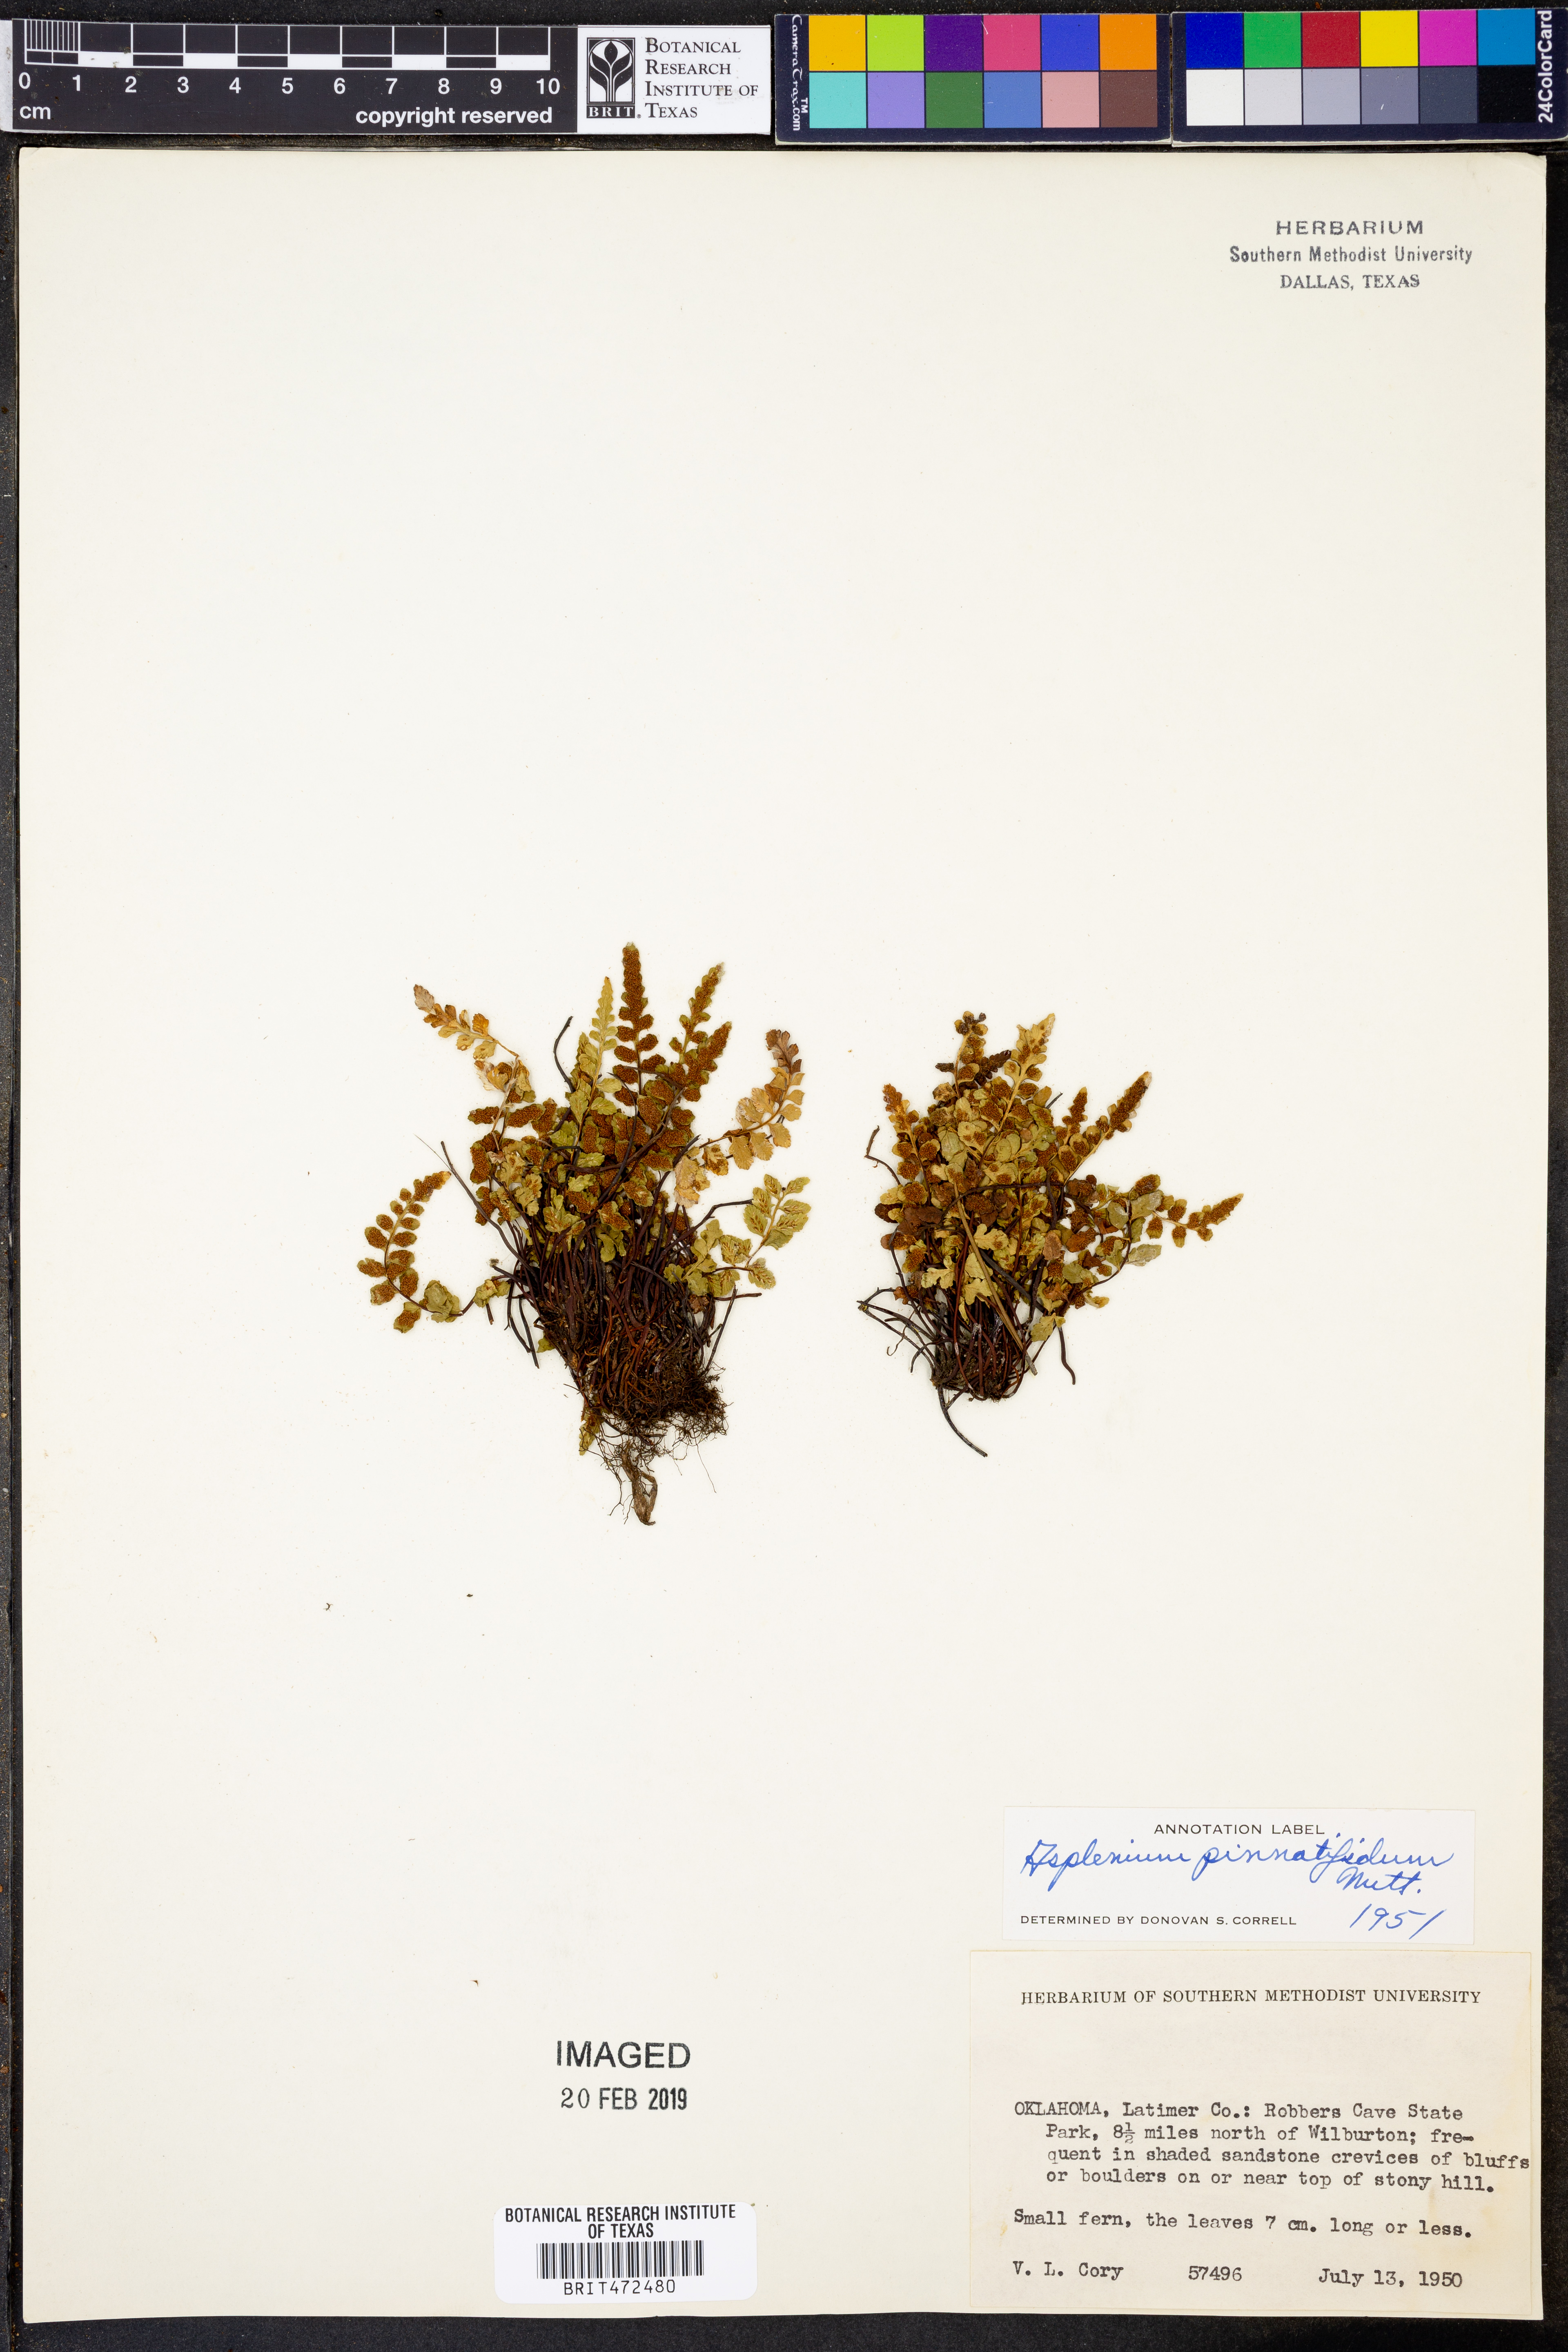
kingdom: Plantae
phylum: Tracheophyta
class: Polypodiopsida
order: Polypodiales
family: Aspleniaceae
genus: Asplenium
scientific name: Asplenium pinnatifidum
